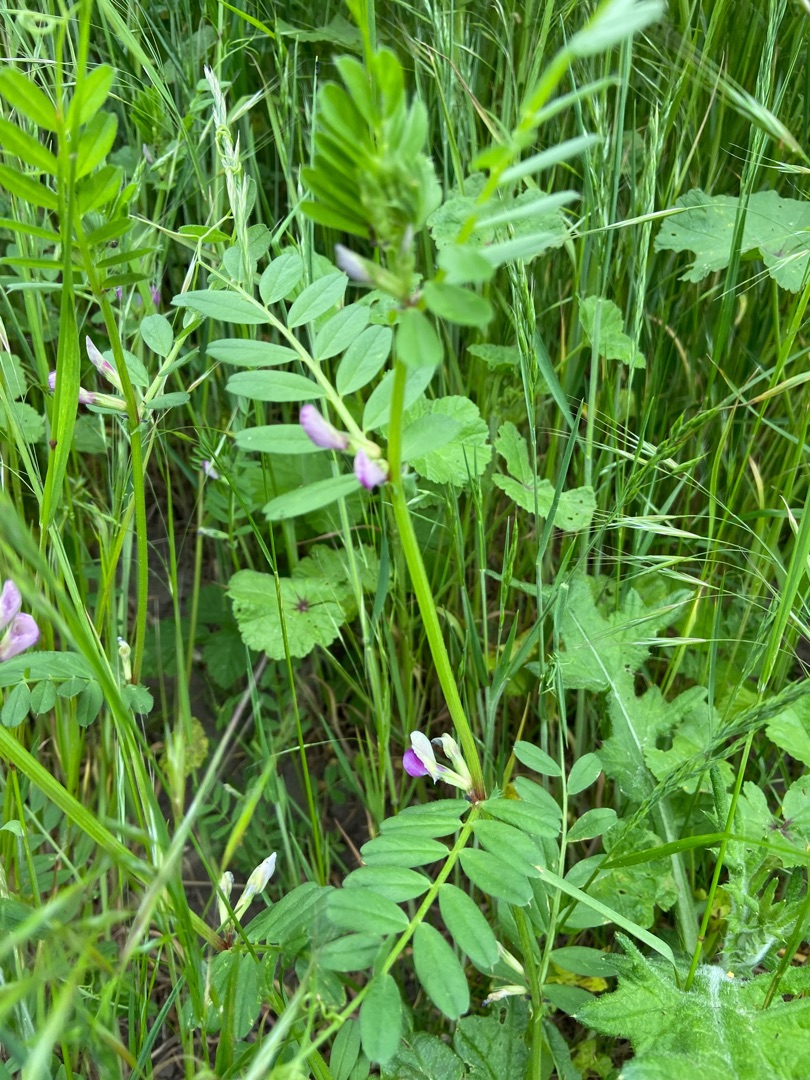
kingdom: Plantae
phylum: Tracheophyta
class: Magnoliopsida
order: Fabales
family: Fabaceae
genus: Vicia
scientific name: Vicia sativa
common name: Ager-vikke
